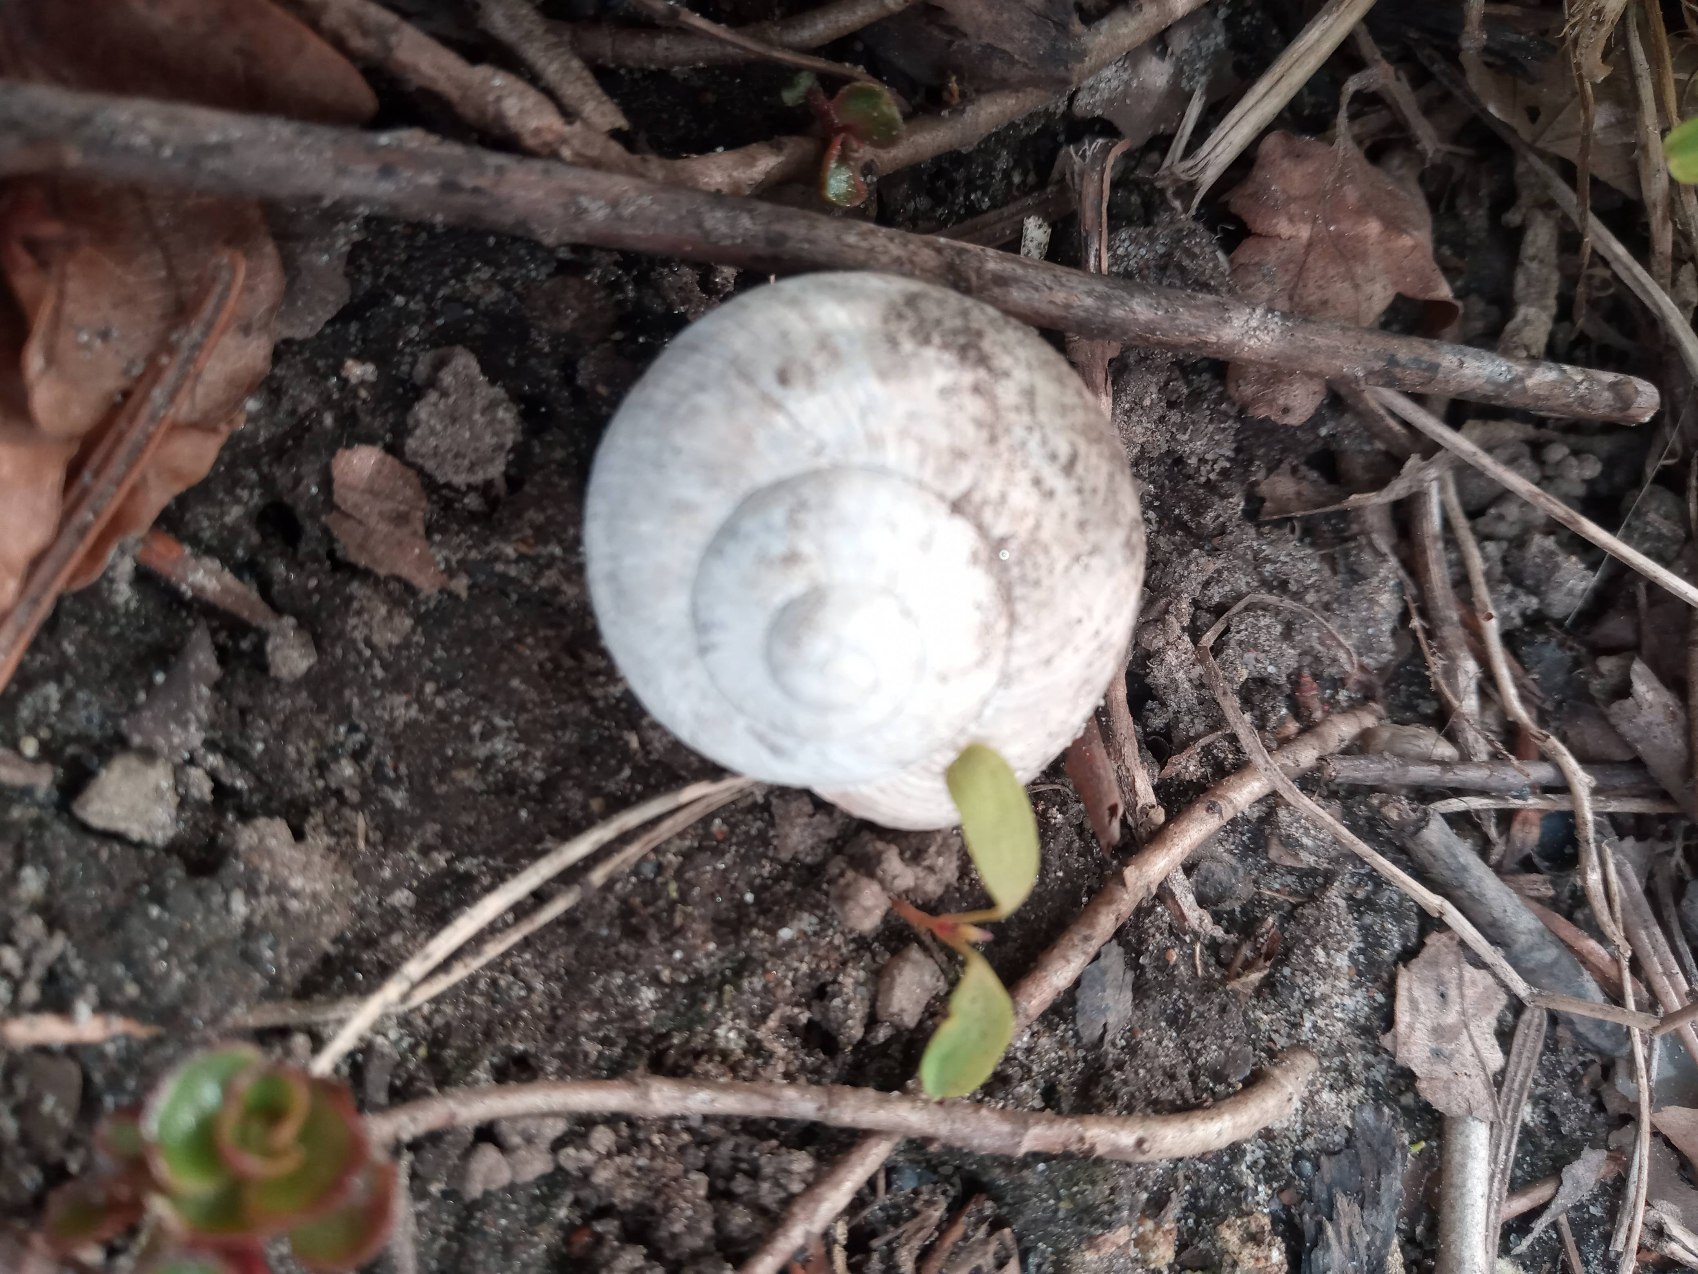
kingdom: Animalia
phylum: Mollusca
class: Gastropoda
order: Stylommatophora
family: Helicidae
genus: Helix
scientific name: Helix pomatia
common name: Vinbjergsnegl
